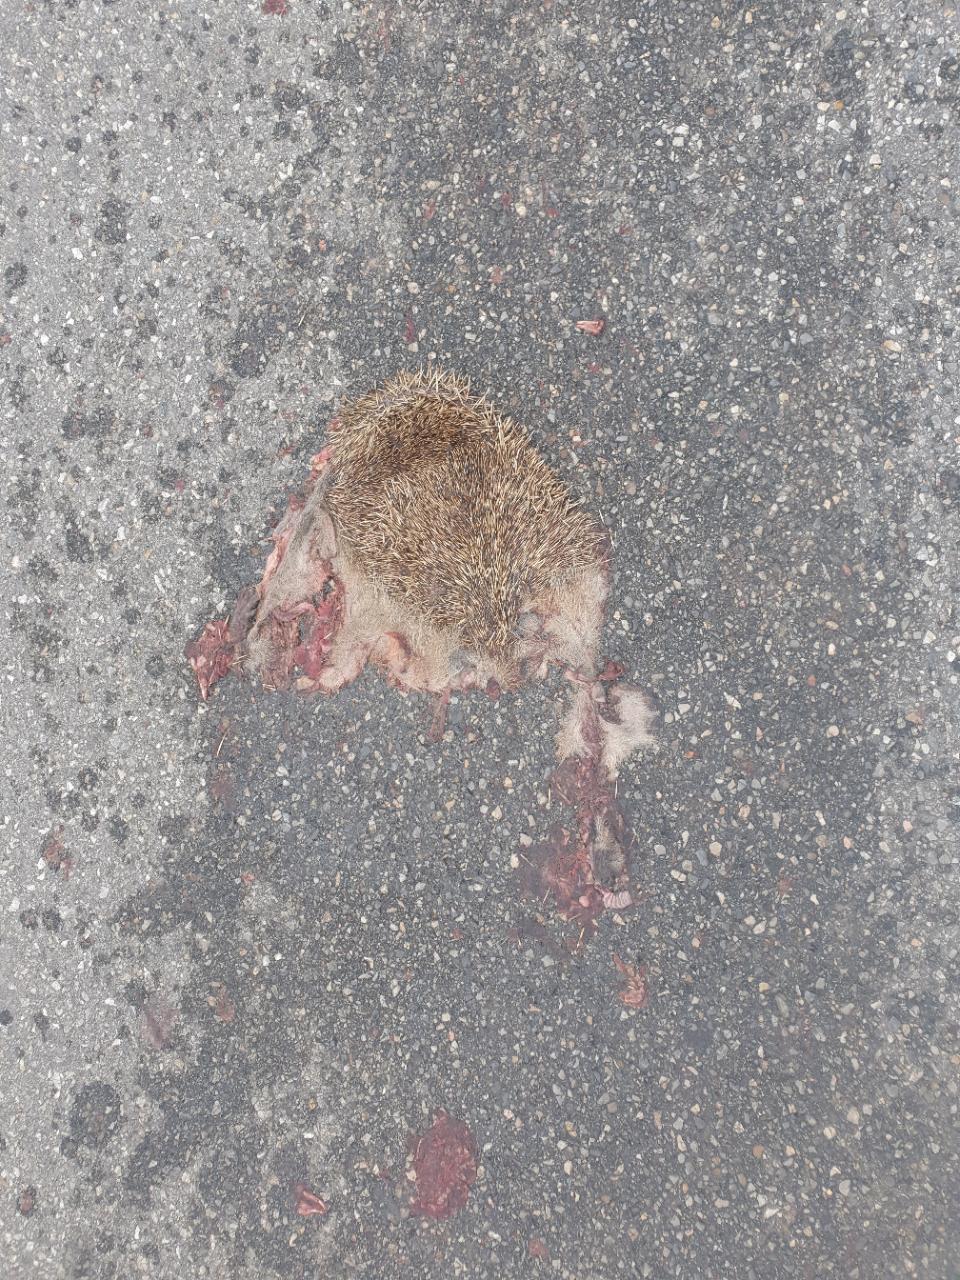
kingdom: Animalia
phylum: Chordata
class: Mammalia
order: Erinaceomorpha
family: Erinaceidae
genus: Erinaceus
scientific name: Erinaceus
